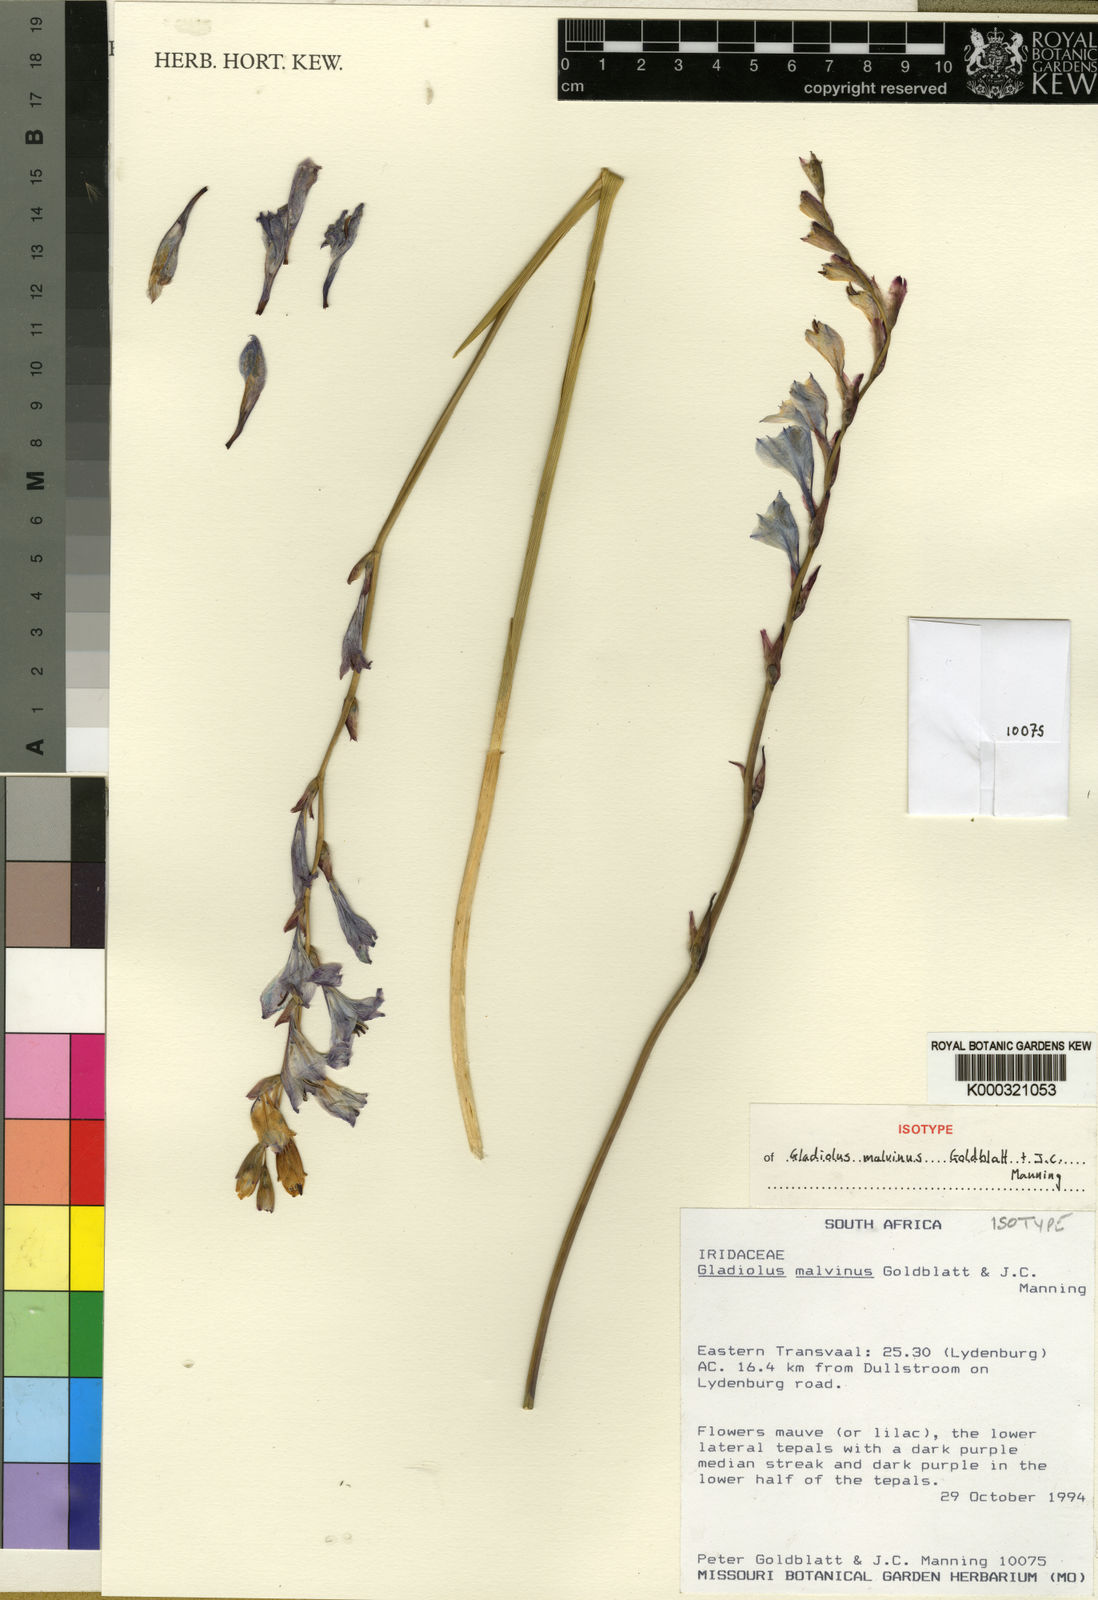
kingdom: Plantae
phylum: Tracheophyta
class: Liliopsida
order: Asparagales
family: Iridaceae
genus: Gladiolus
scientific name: Gladiolus malvinus
